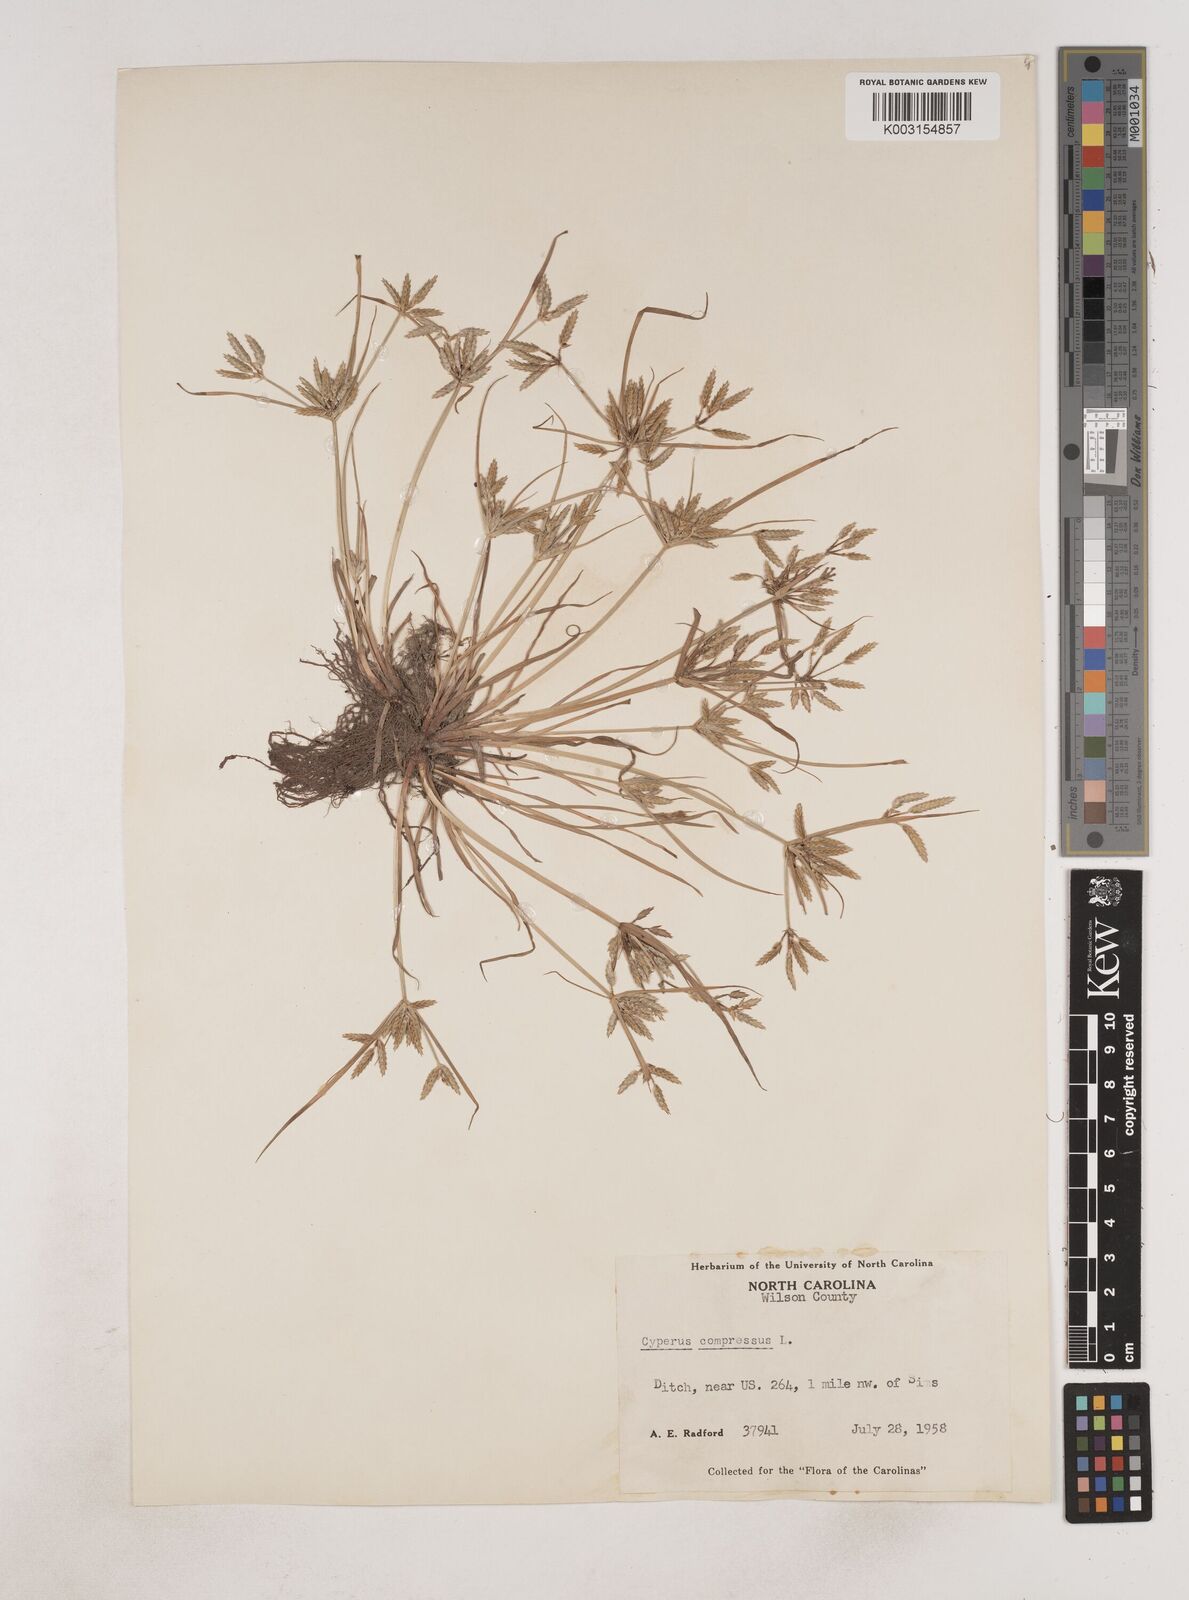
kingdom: Plantae
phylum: Tracheophyta
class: Liliopsida
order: Poales
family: Cyperaceae
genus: Cyperus
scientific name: Cyperus compressus
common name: Poorland flatsedge
